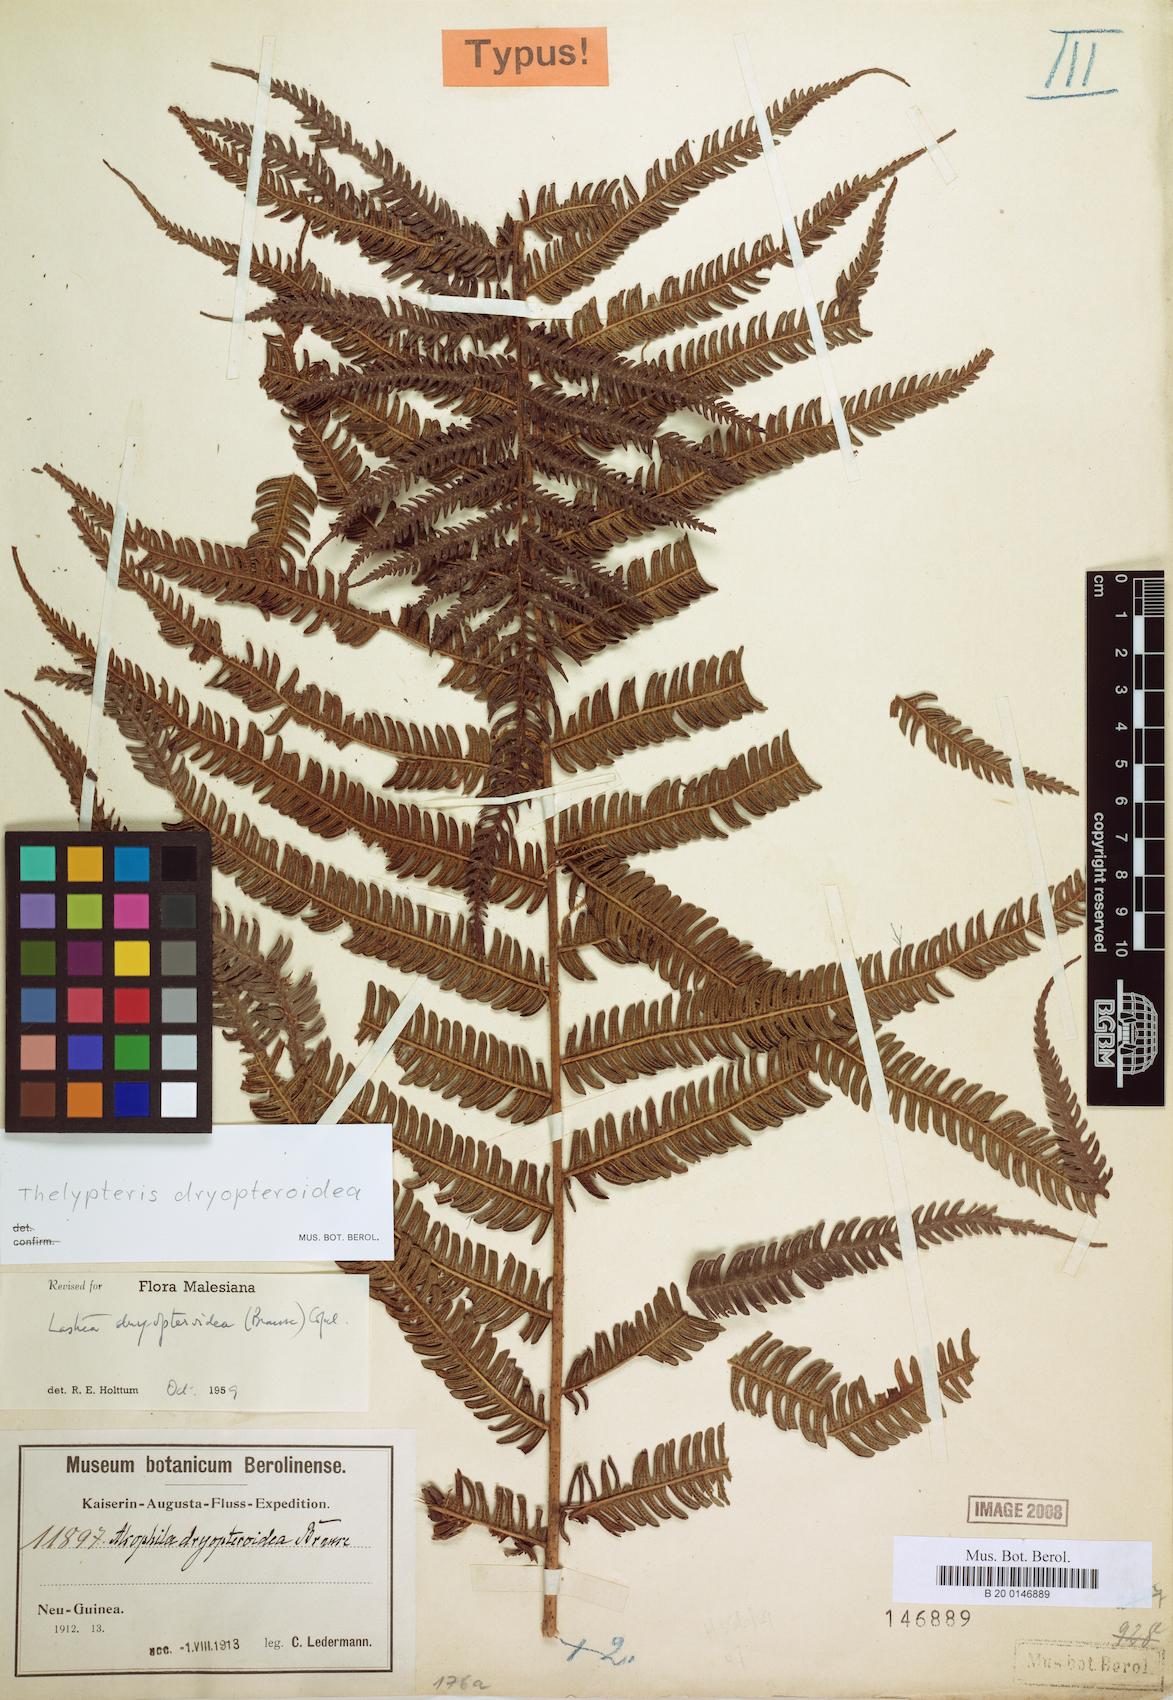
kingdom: Plantae
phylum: Tracheophyta
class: Polypodiopsida
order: Polypodiales
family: Thelypteridaceae
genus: Plesioneuron
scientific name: Plesioneuron dryopteroideum
